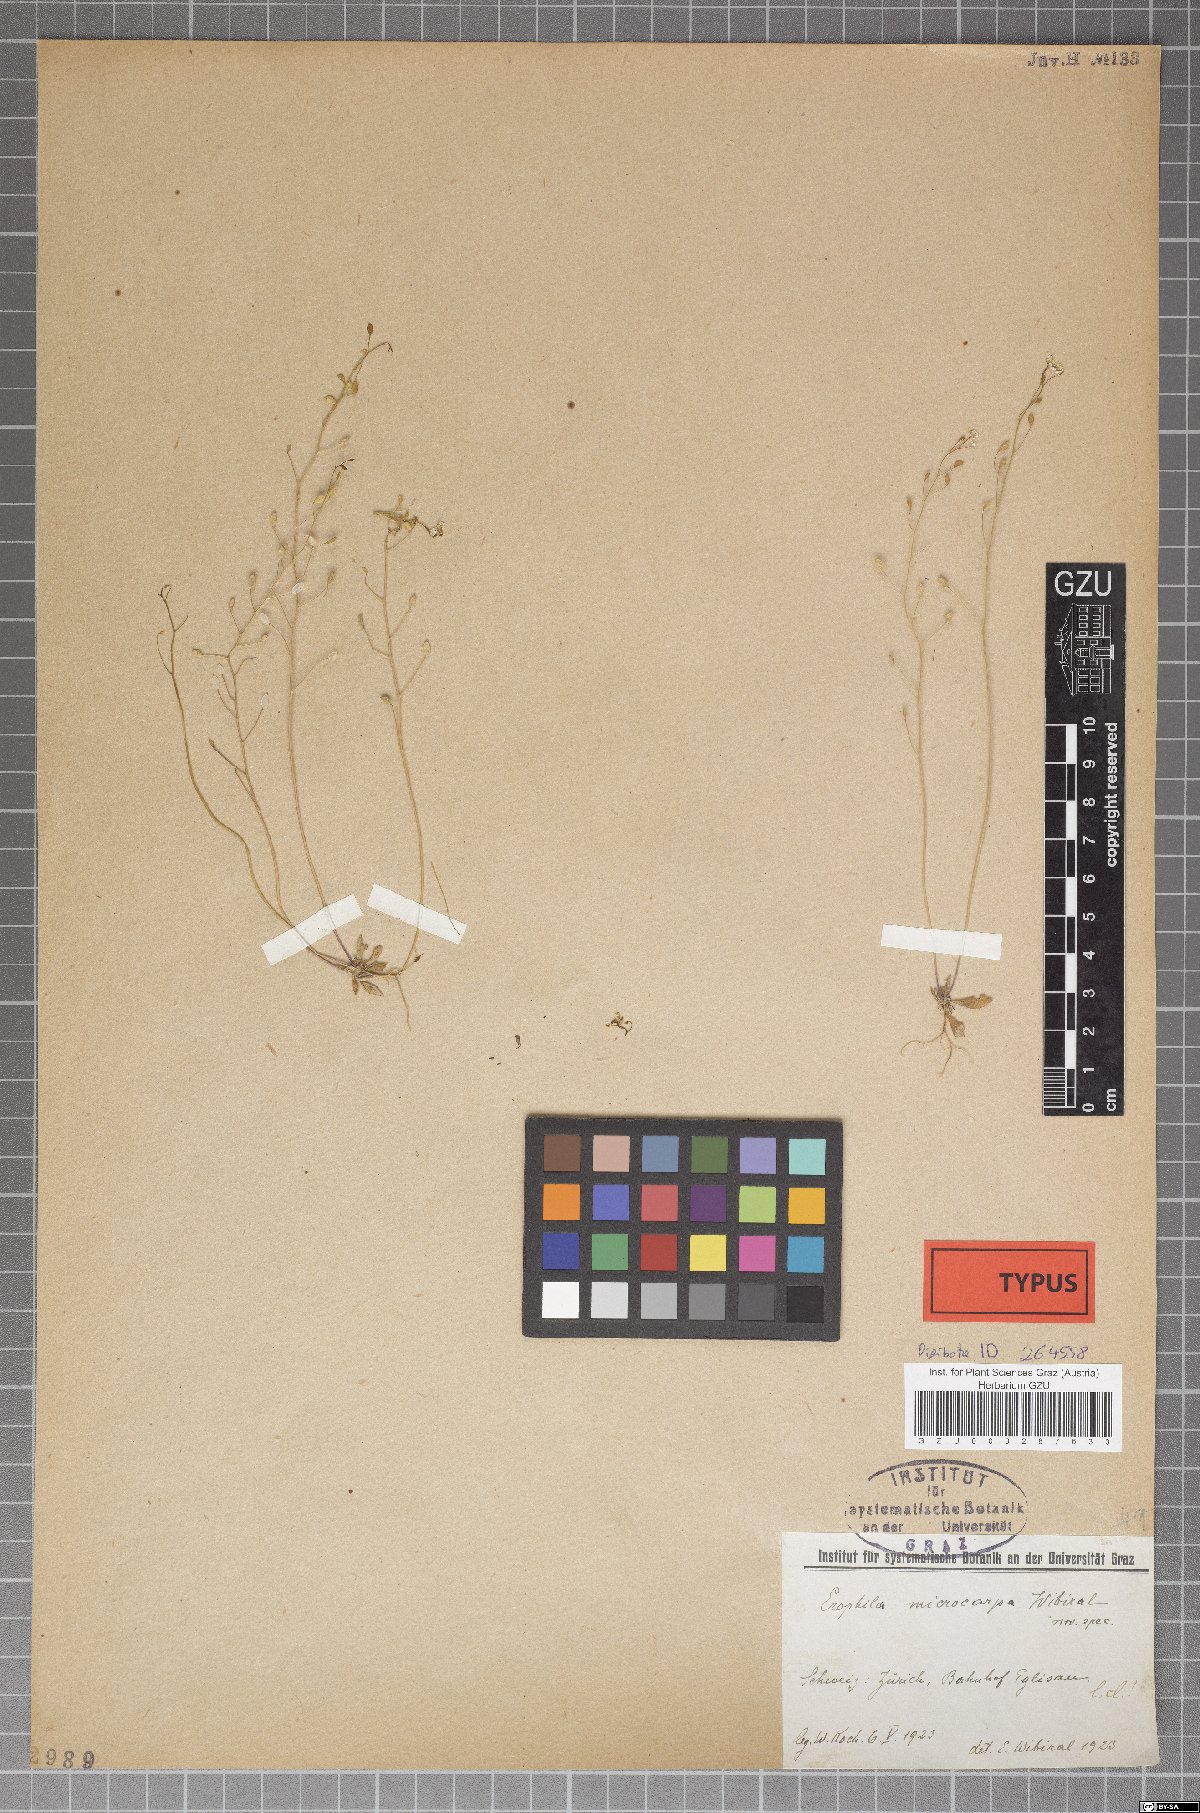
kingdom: Plantae
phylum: Tracheophyta
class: Magnoliopsida
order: Brassicales
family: Brassicaceae
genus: Draba
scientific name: Draba verna
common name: Spring draba
